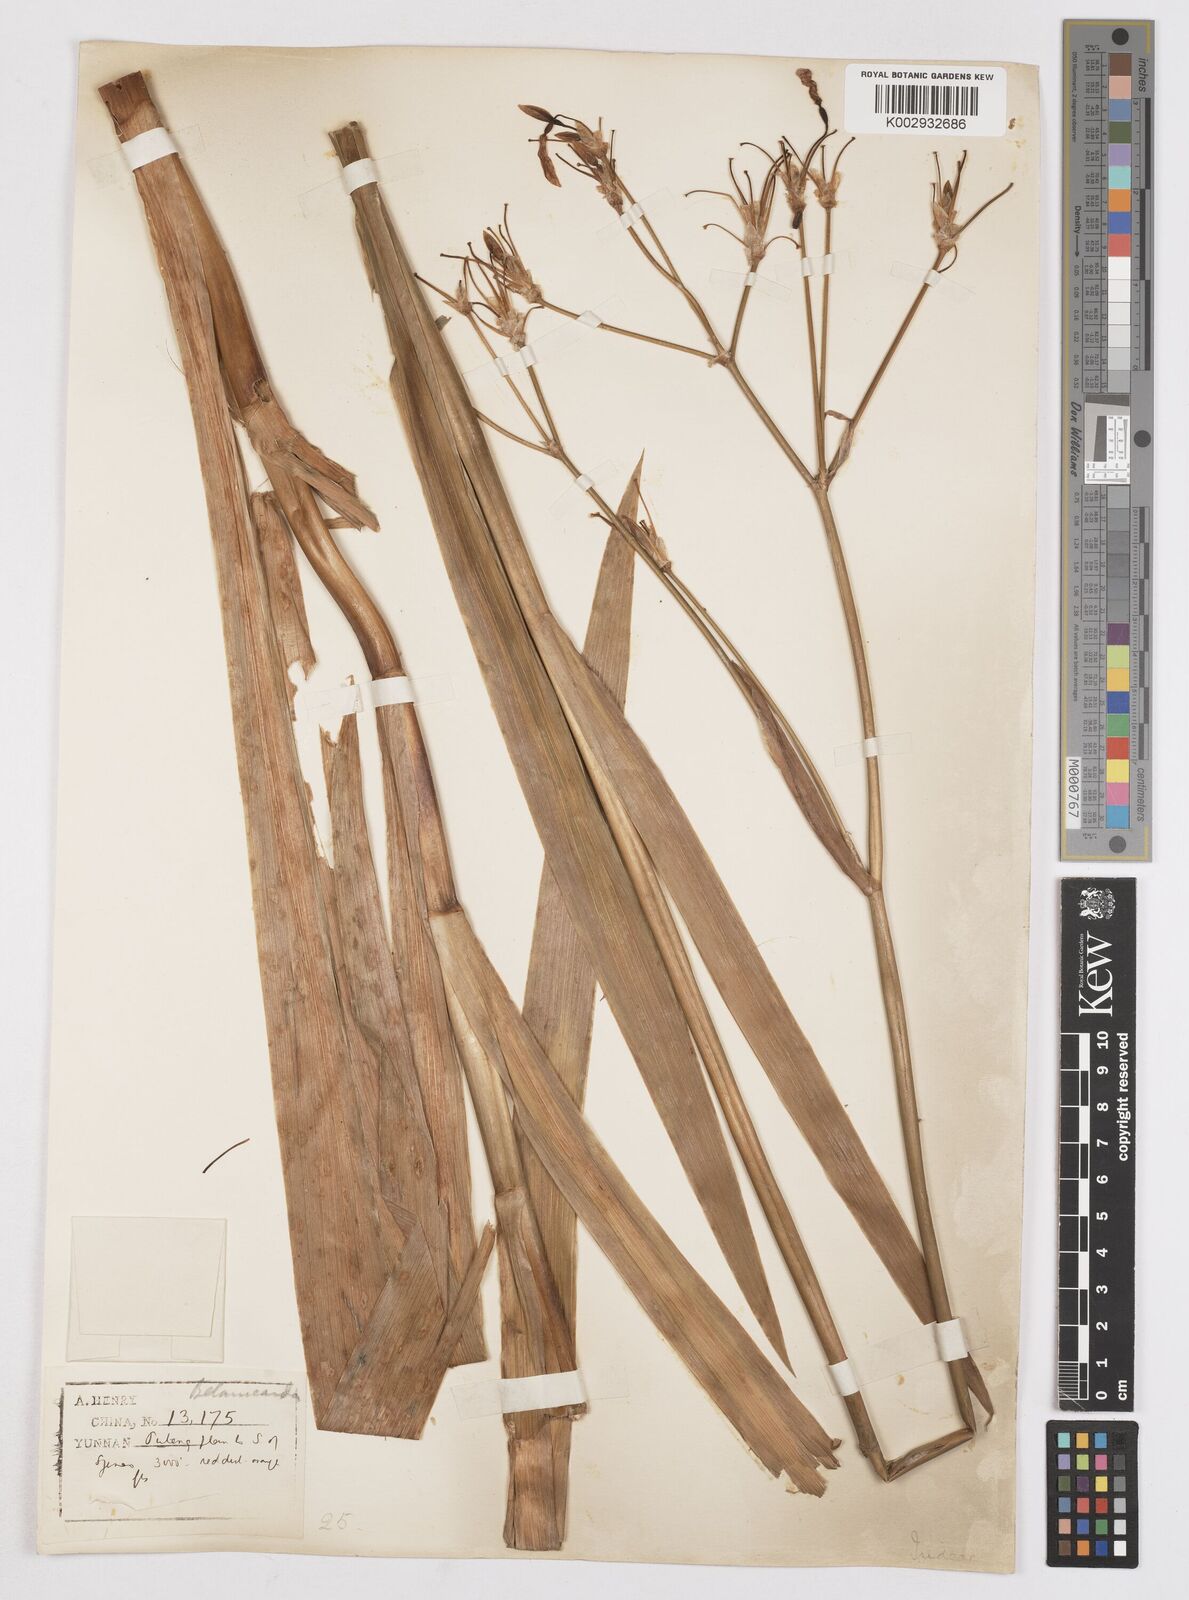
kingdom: Plantae
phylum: Tracheophyta
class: Liliopsida
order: Asparagales
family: Iridaceae
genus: Iris
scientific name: Iris
